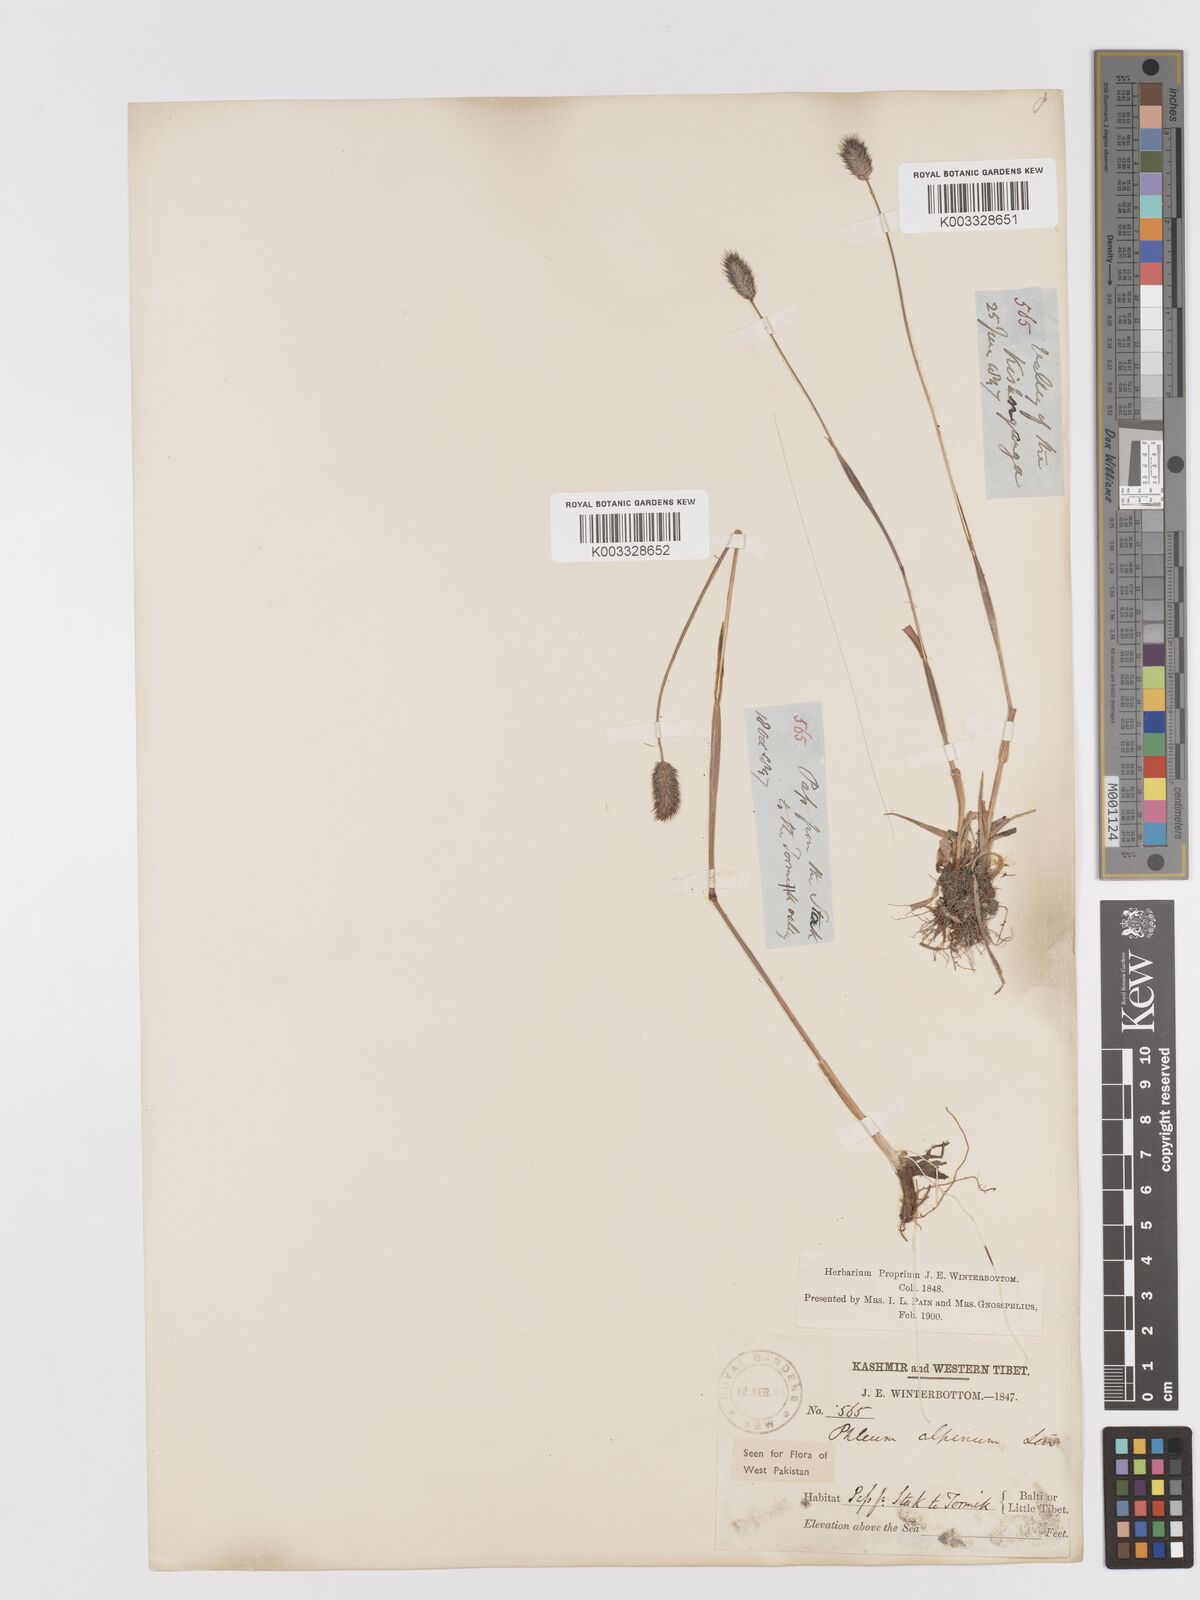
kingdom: Plantae
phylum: Tracheophyta
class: Liliopsida
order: Poales
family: Poaceae
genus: Phleum
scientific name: Phleum alpinum
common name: Alpine cat's-tail
